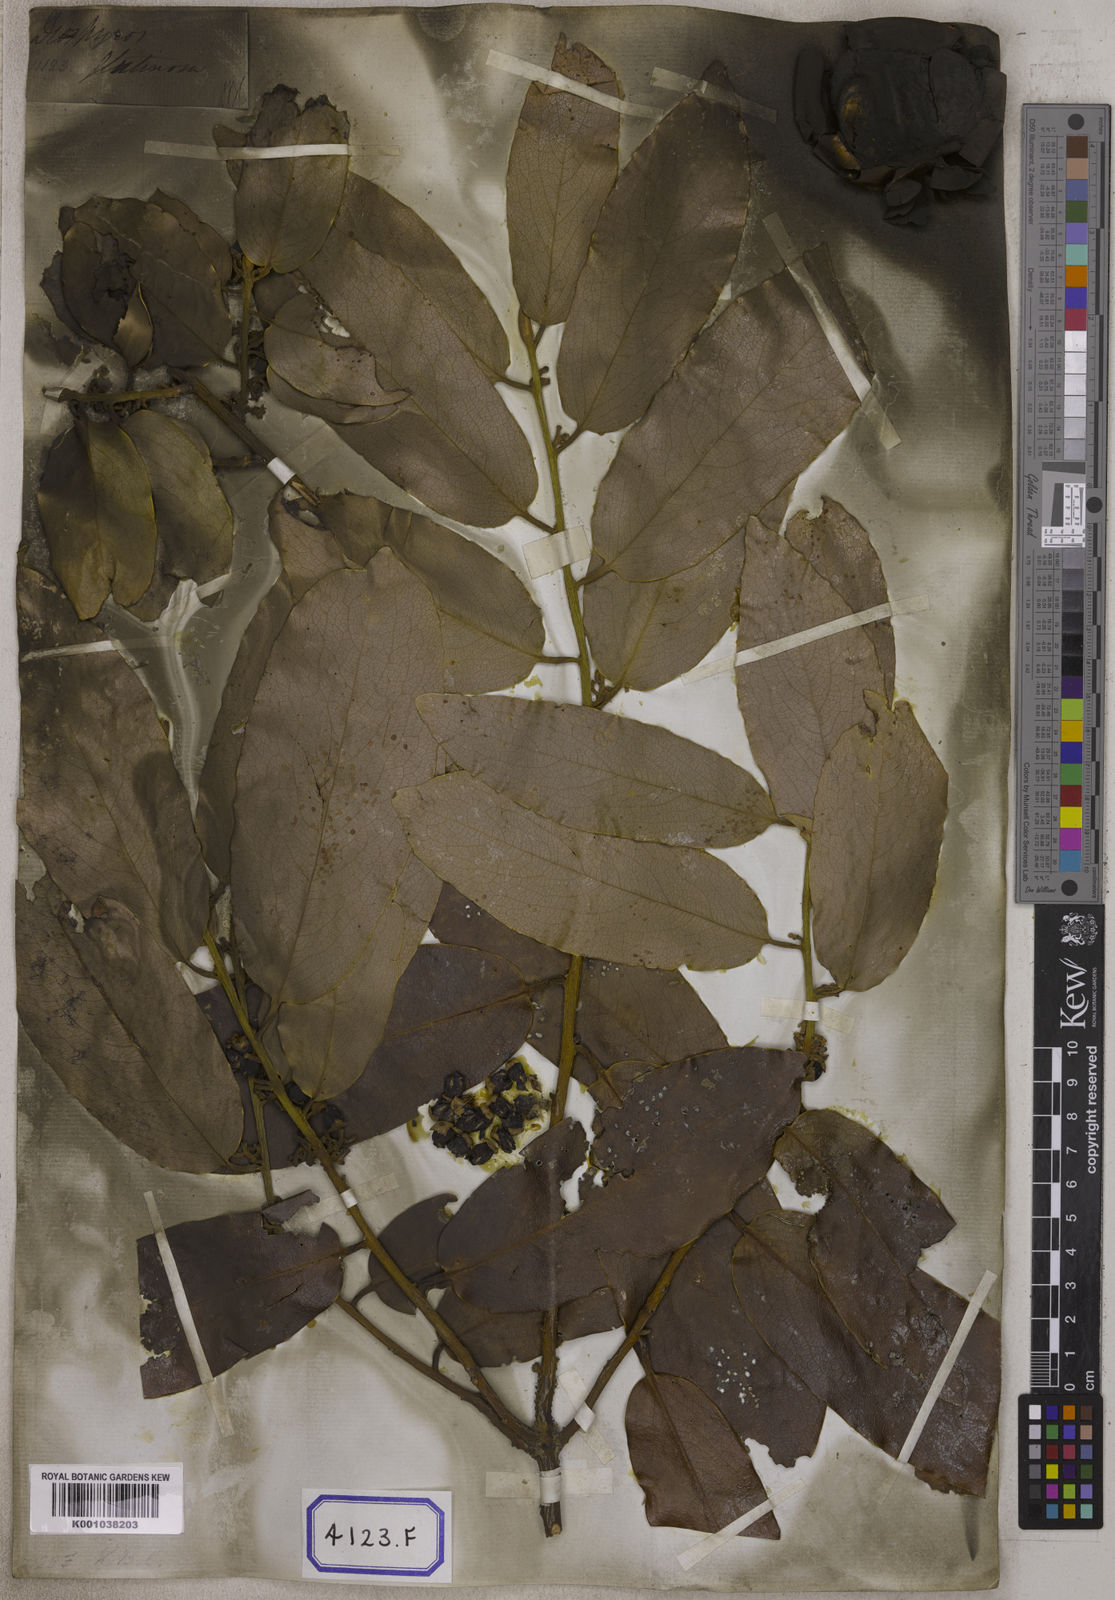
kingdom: Plantae
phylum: Tracheophyta
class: Magnoliopsida
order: Ericales
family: Ebenaceae
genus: Diospyros
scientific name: Diospyros malabarica
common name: Mountain ebony
